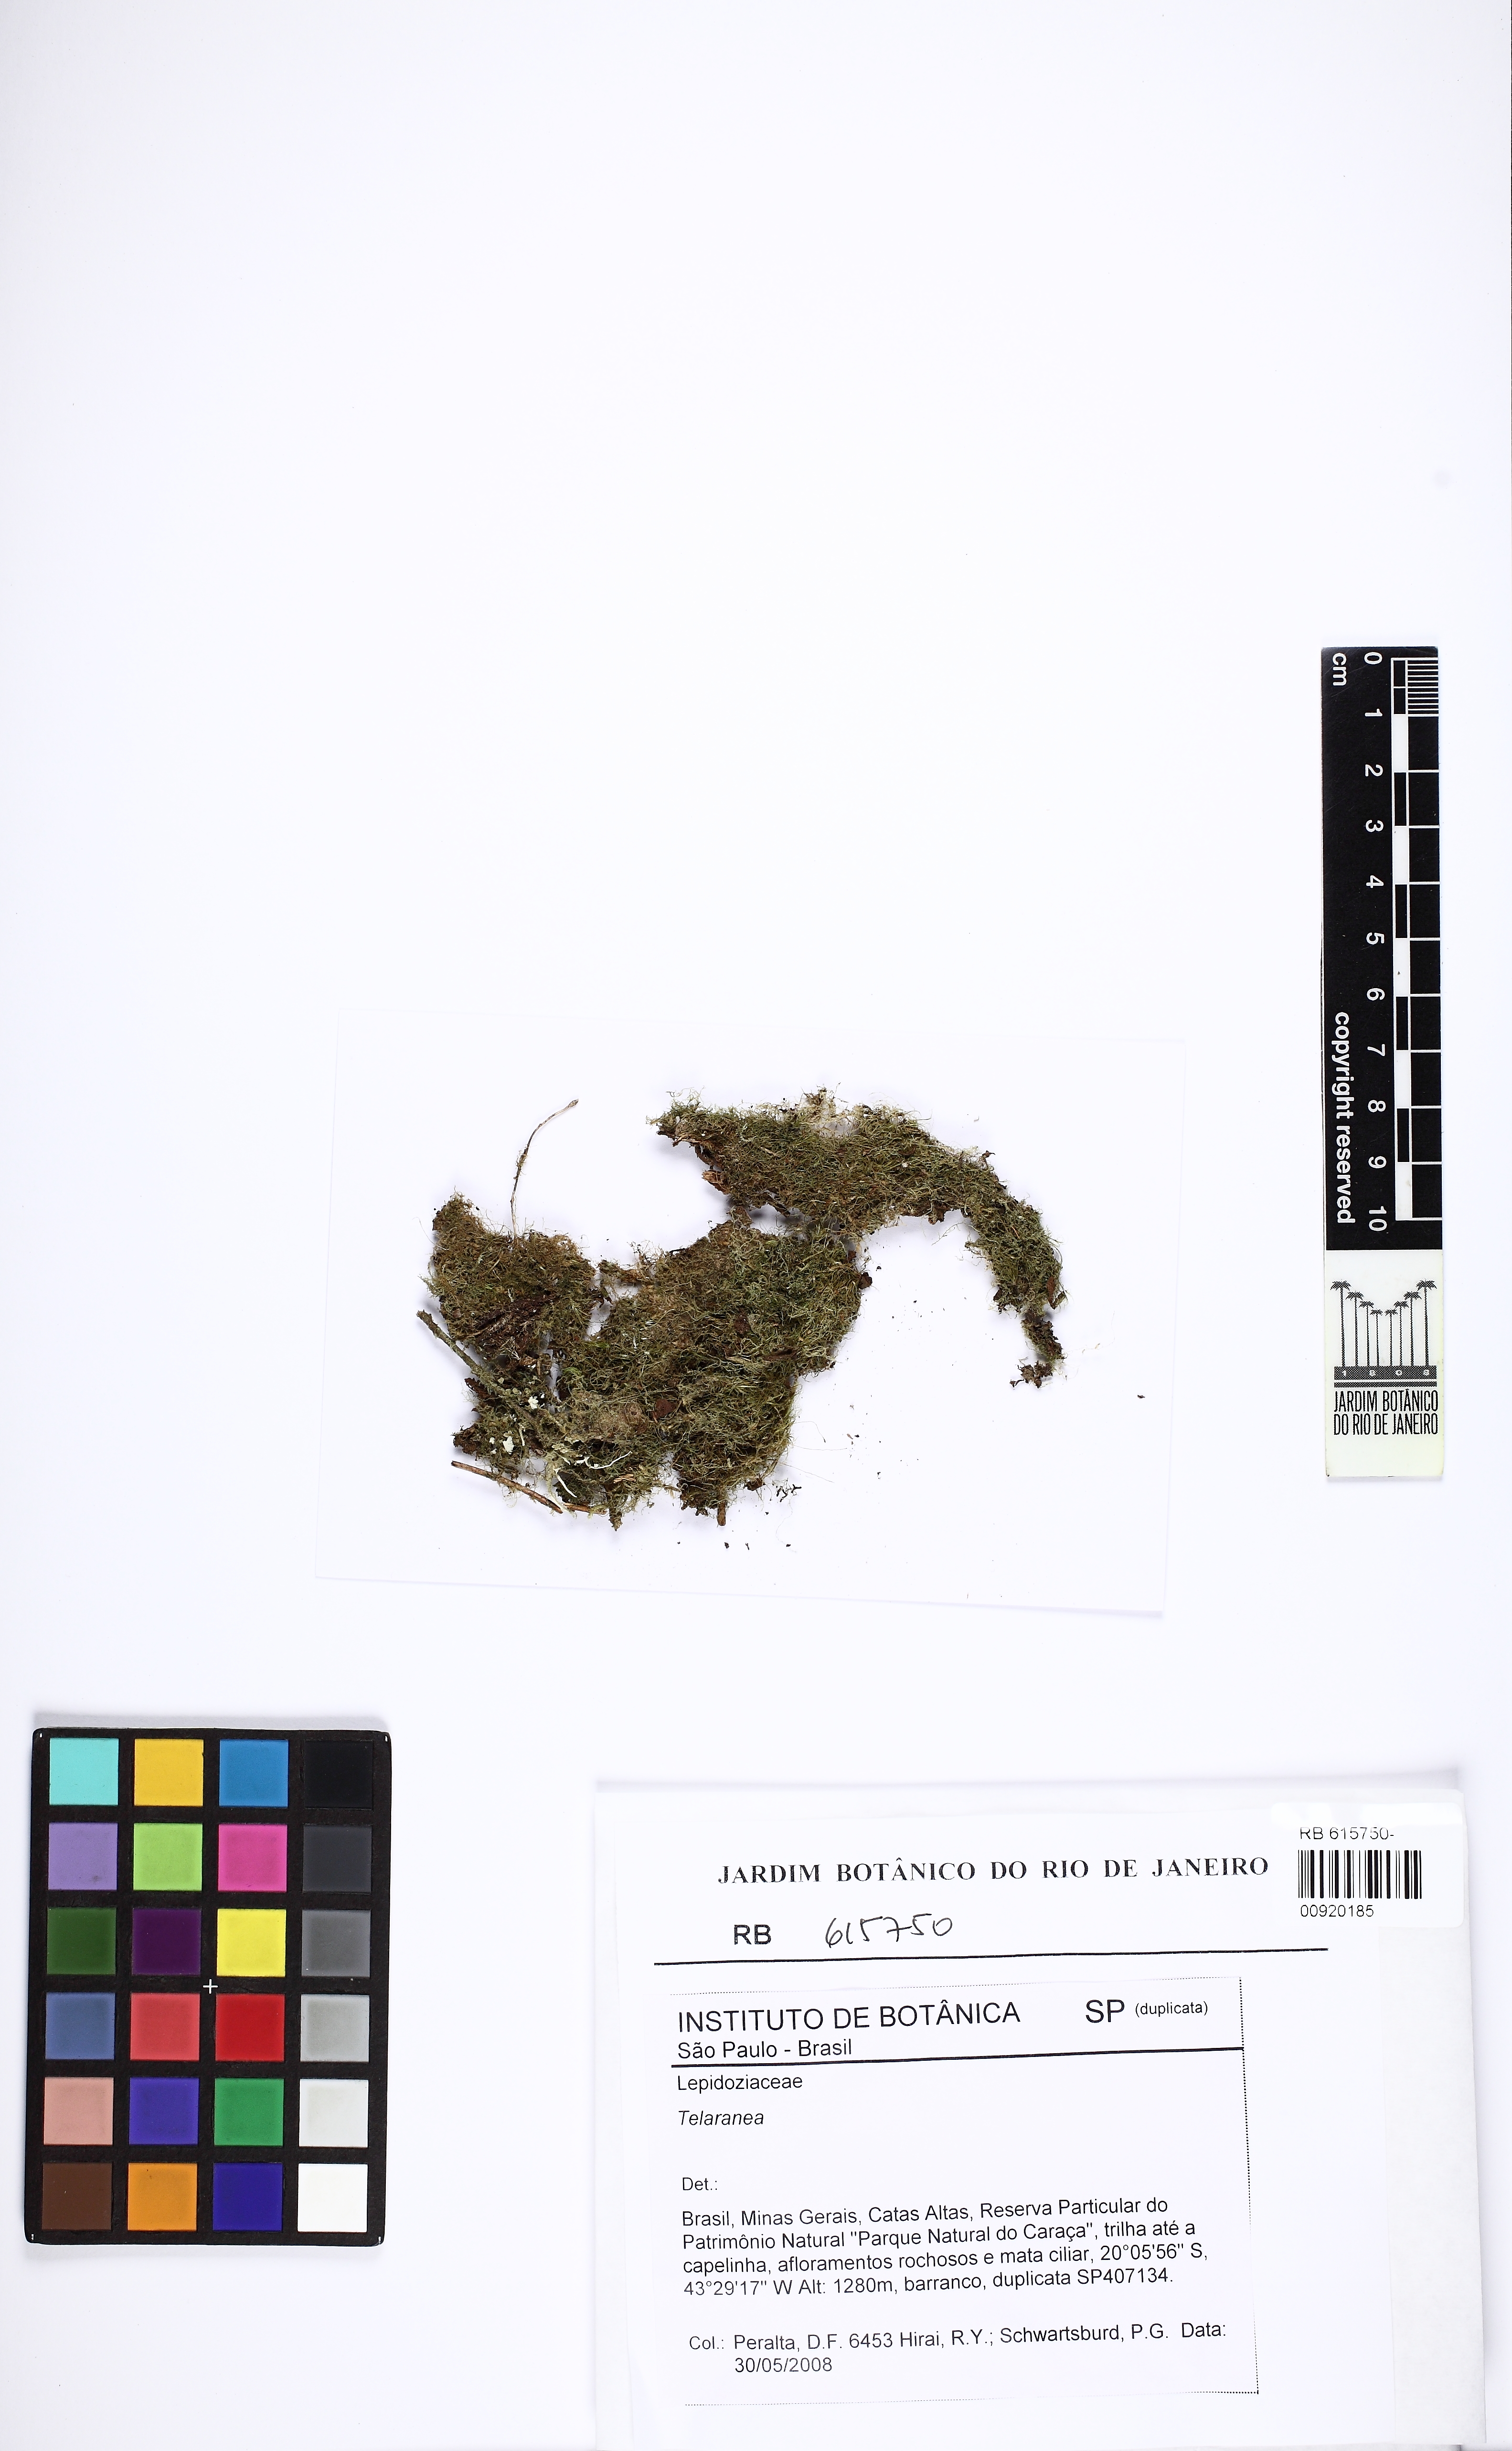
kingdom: Plantae
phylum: Marchantiophyta
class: Jungermanniopsida
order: Jungermanniales
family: Lepidoziaceae
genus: Telaranea
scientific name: Telaranea
